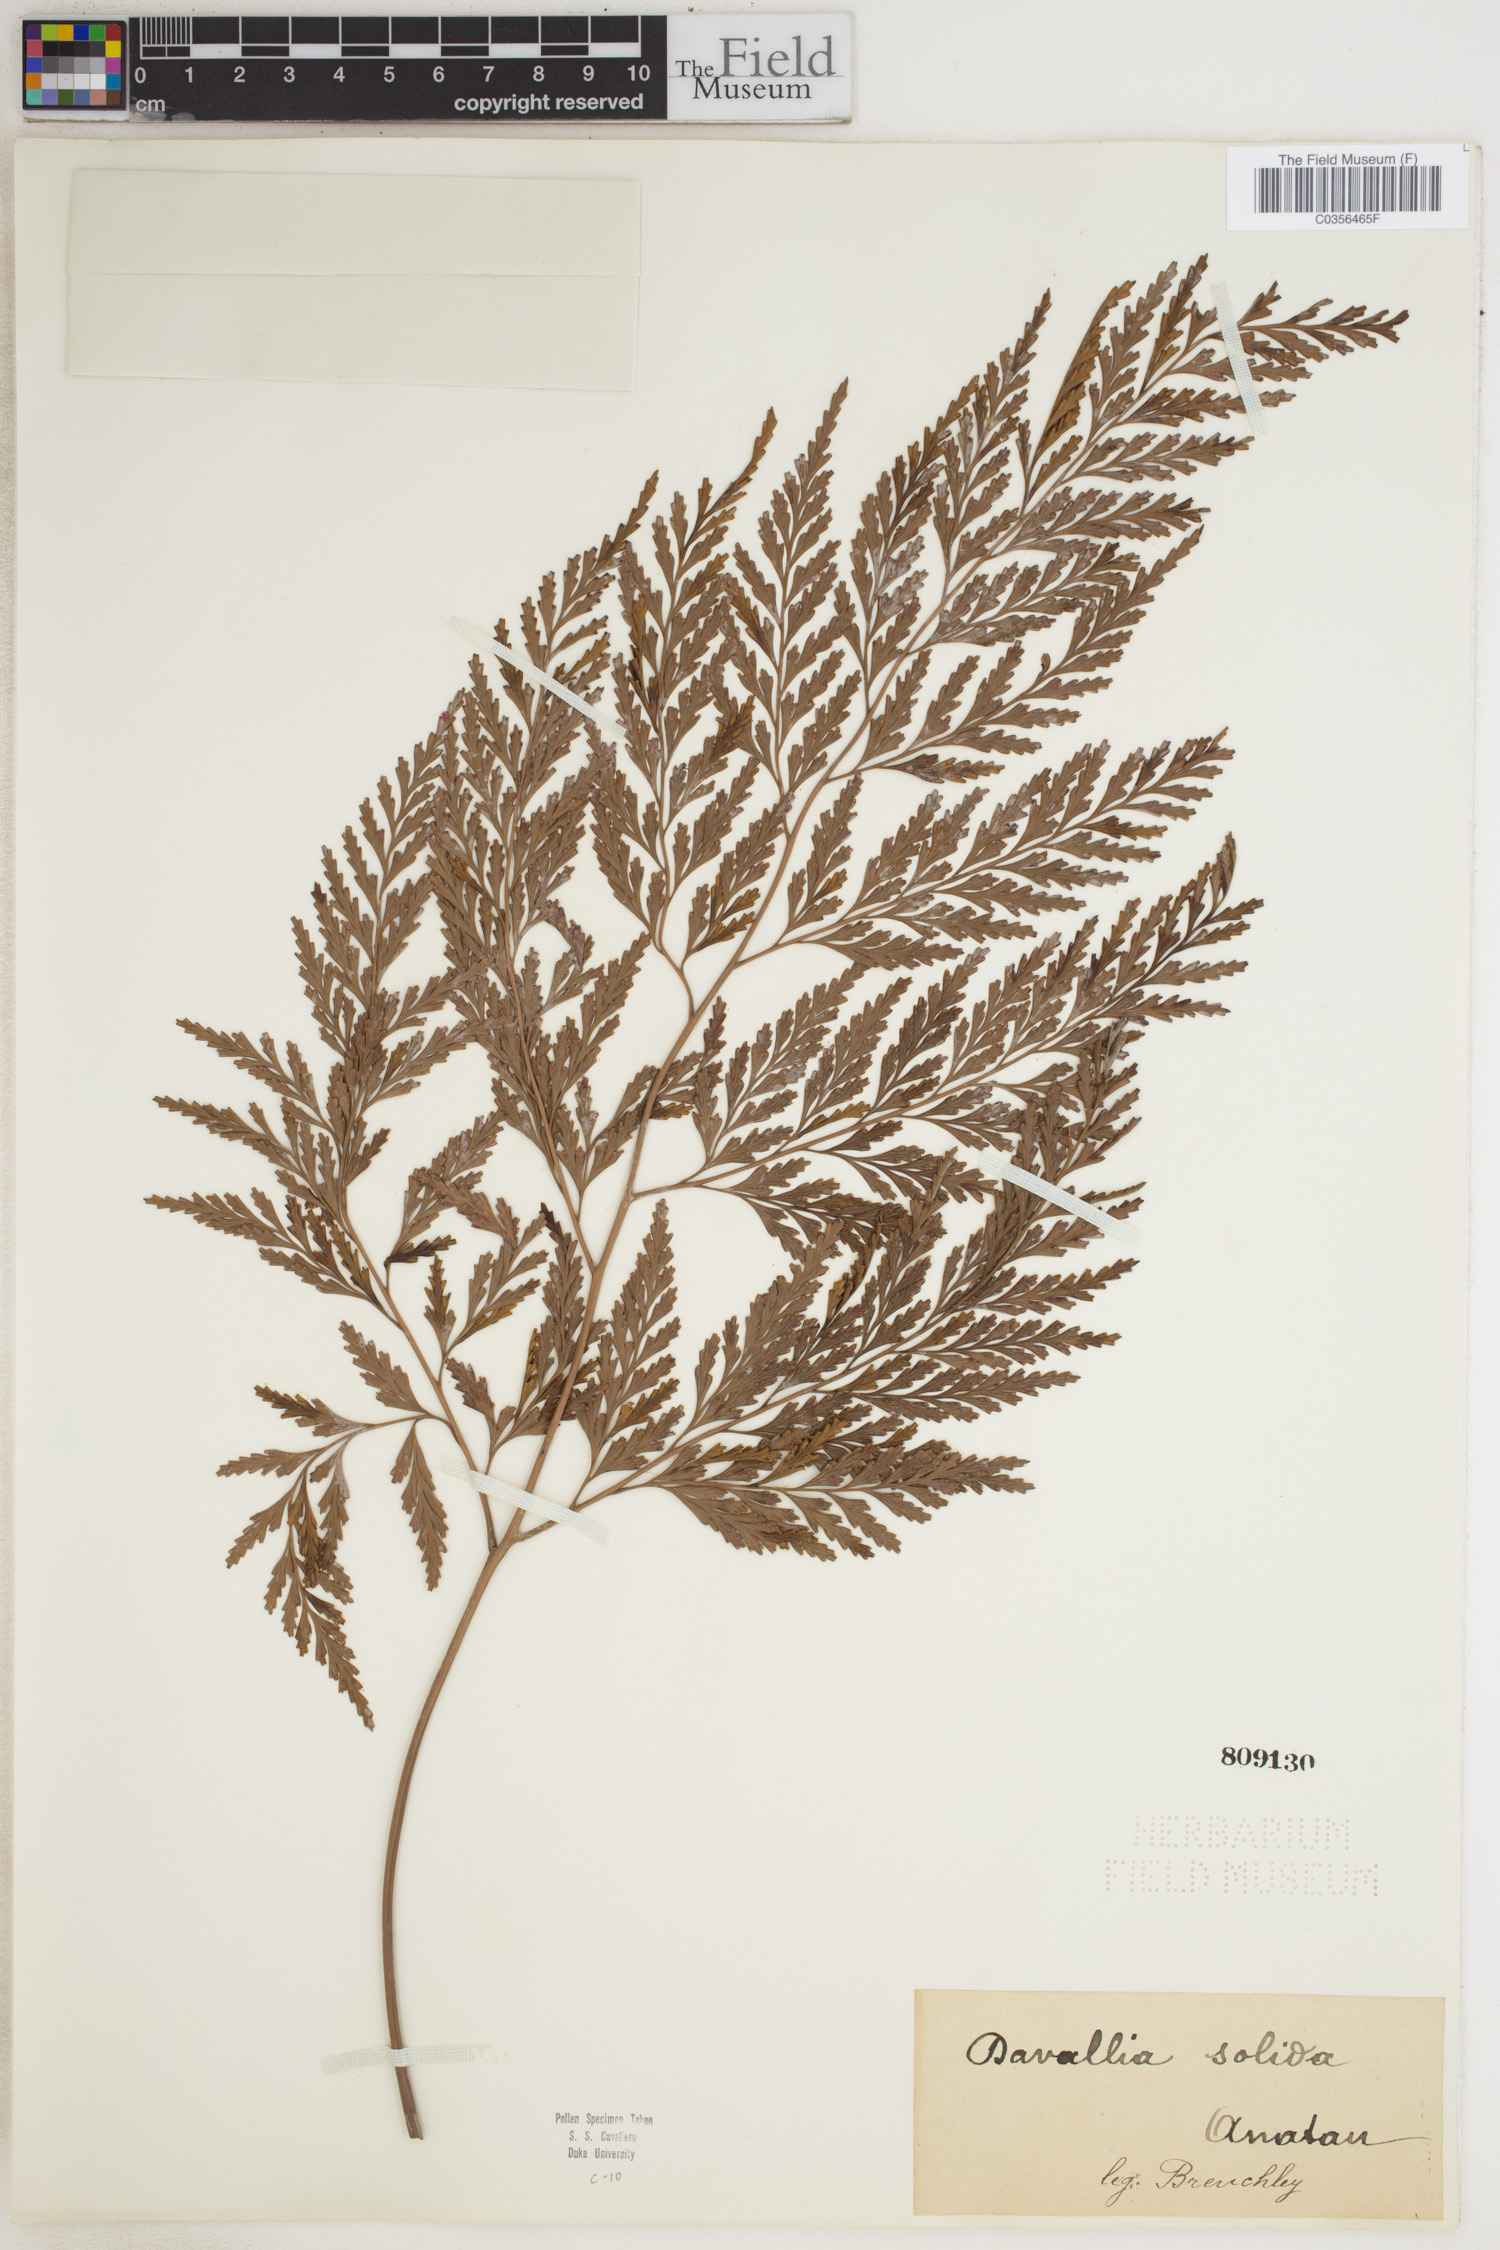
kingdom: Plantae
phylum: Tracheophyta
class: Polypodiopsida
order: Polypodiales
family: Davalliaceae
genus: Davallia
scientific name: Davallia solida
